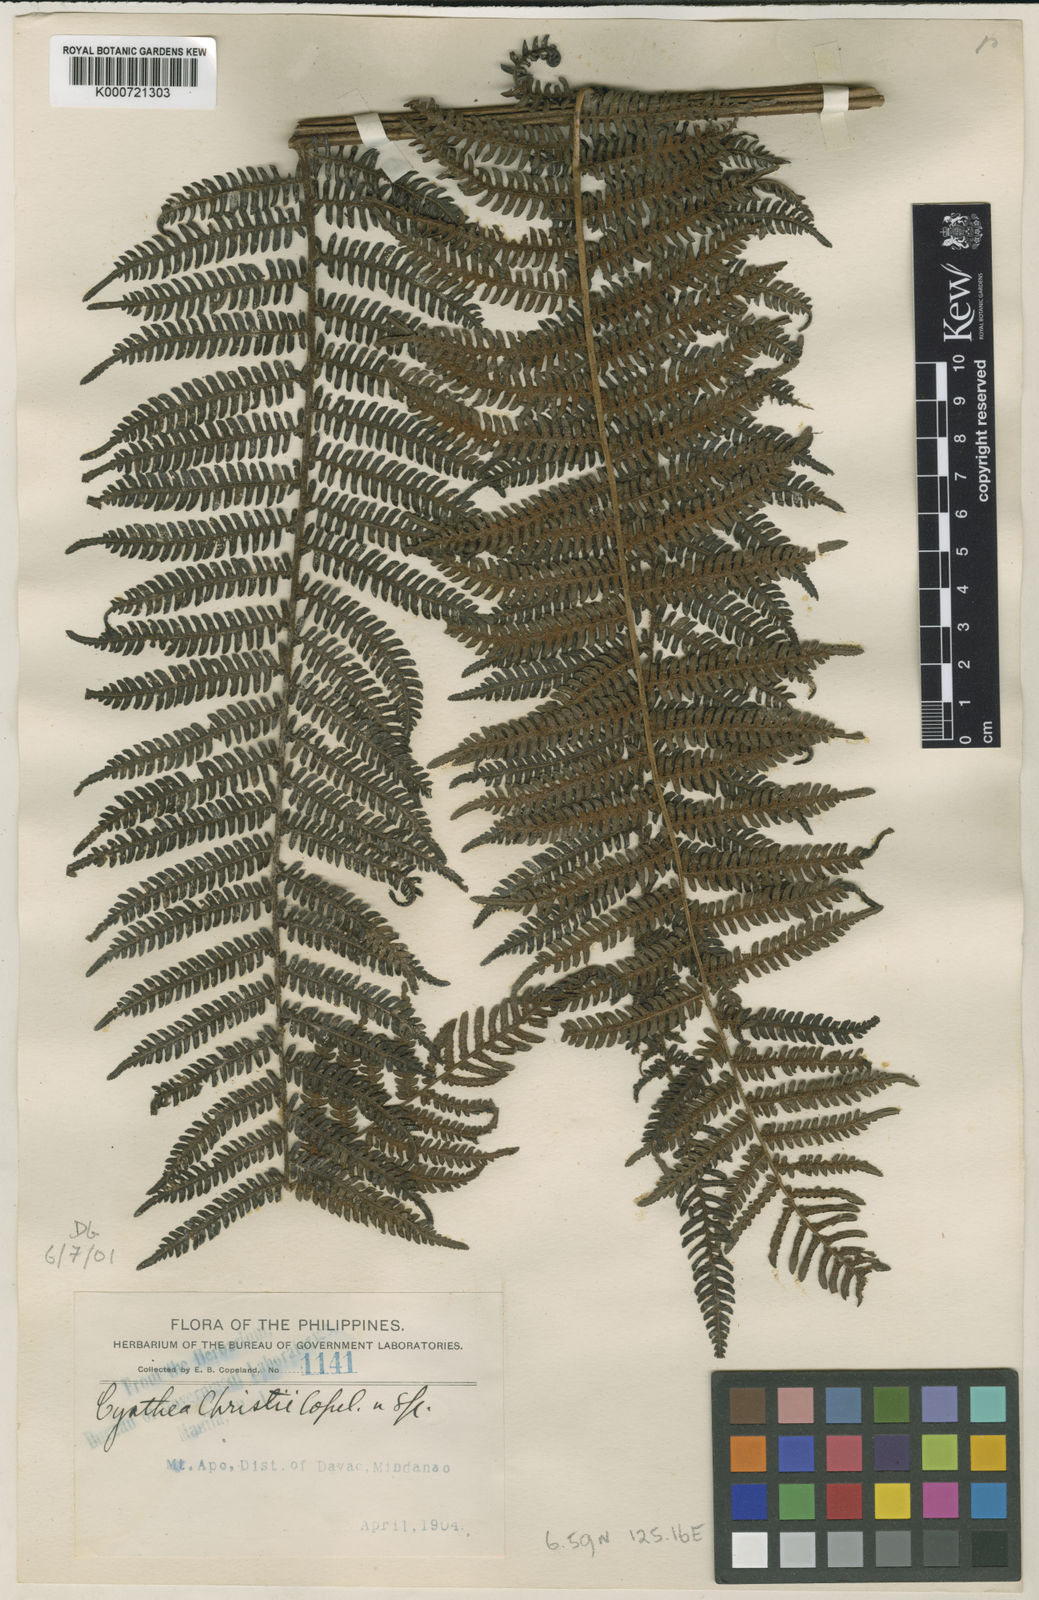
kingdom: Plantae
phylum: Tracheophyta
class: Polypodiopsida
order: Cyatheales
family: Cyatheaceae
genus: Alsophila
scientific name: Alsophila hermannii
